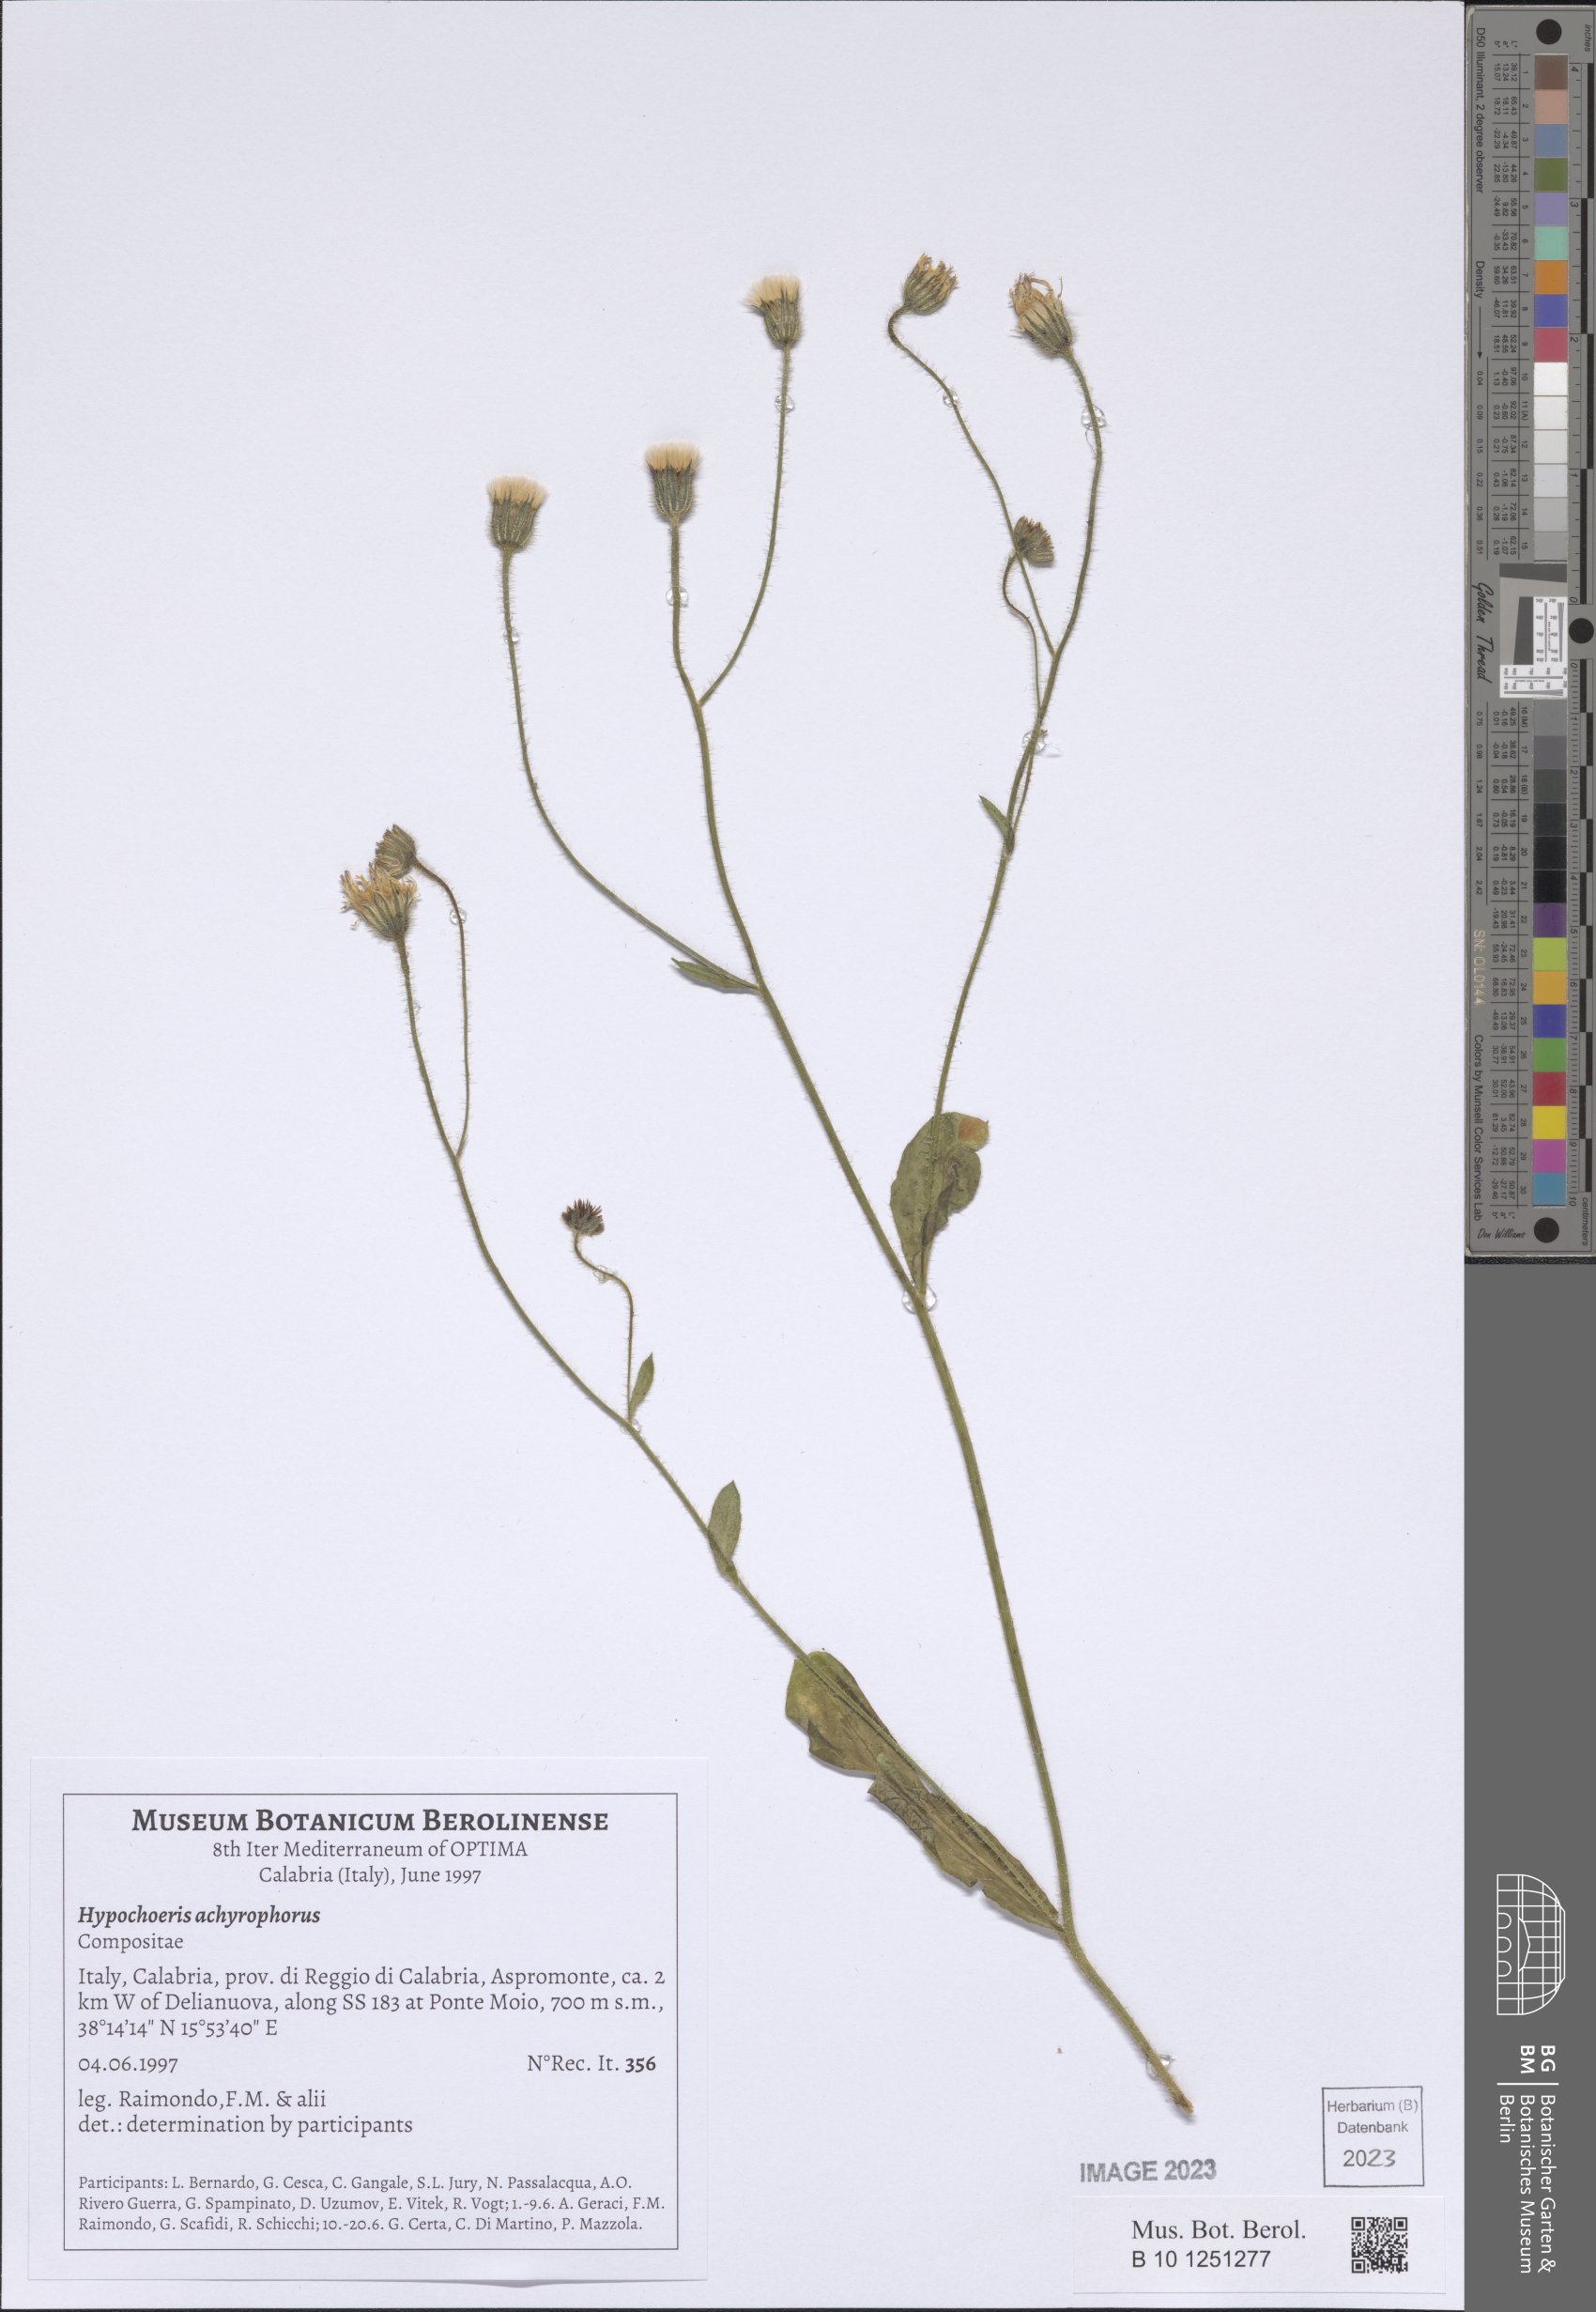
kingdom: Plantae
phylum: Tracheophyta
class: Magnoliopsida
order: Asterales
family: Asteraceae
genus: Achyrophorus
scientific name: Achyrophorus valdesii
